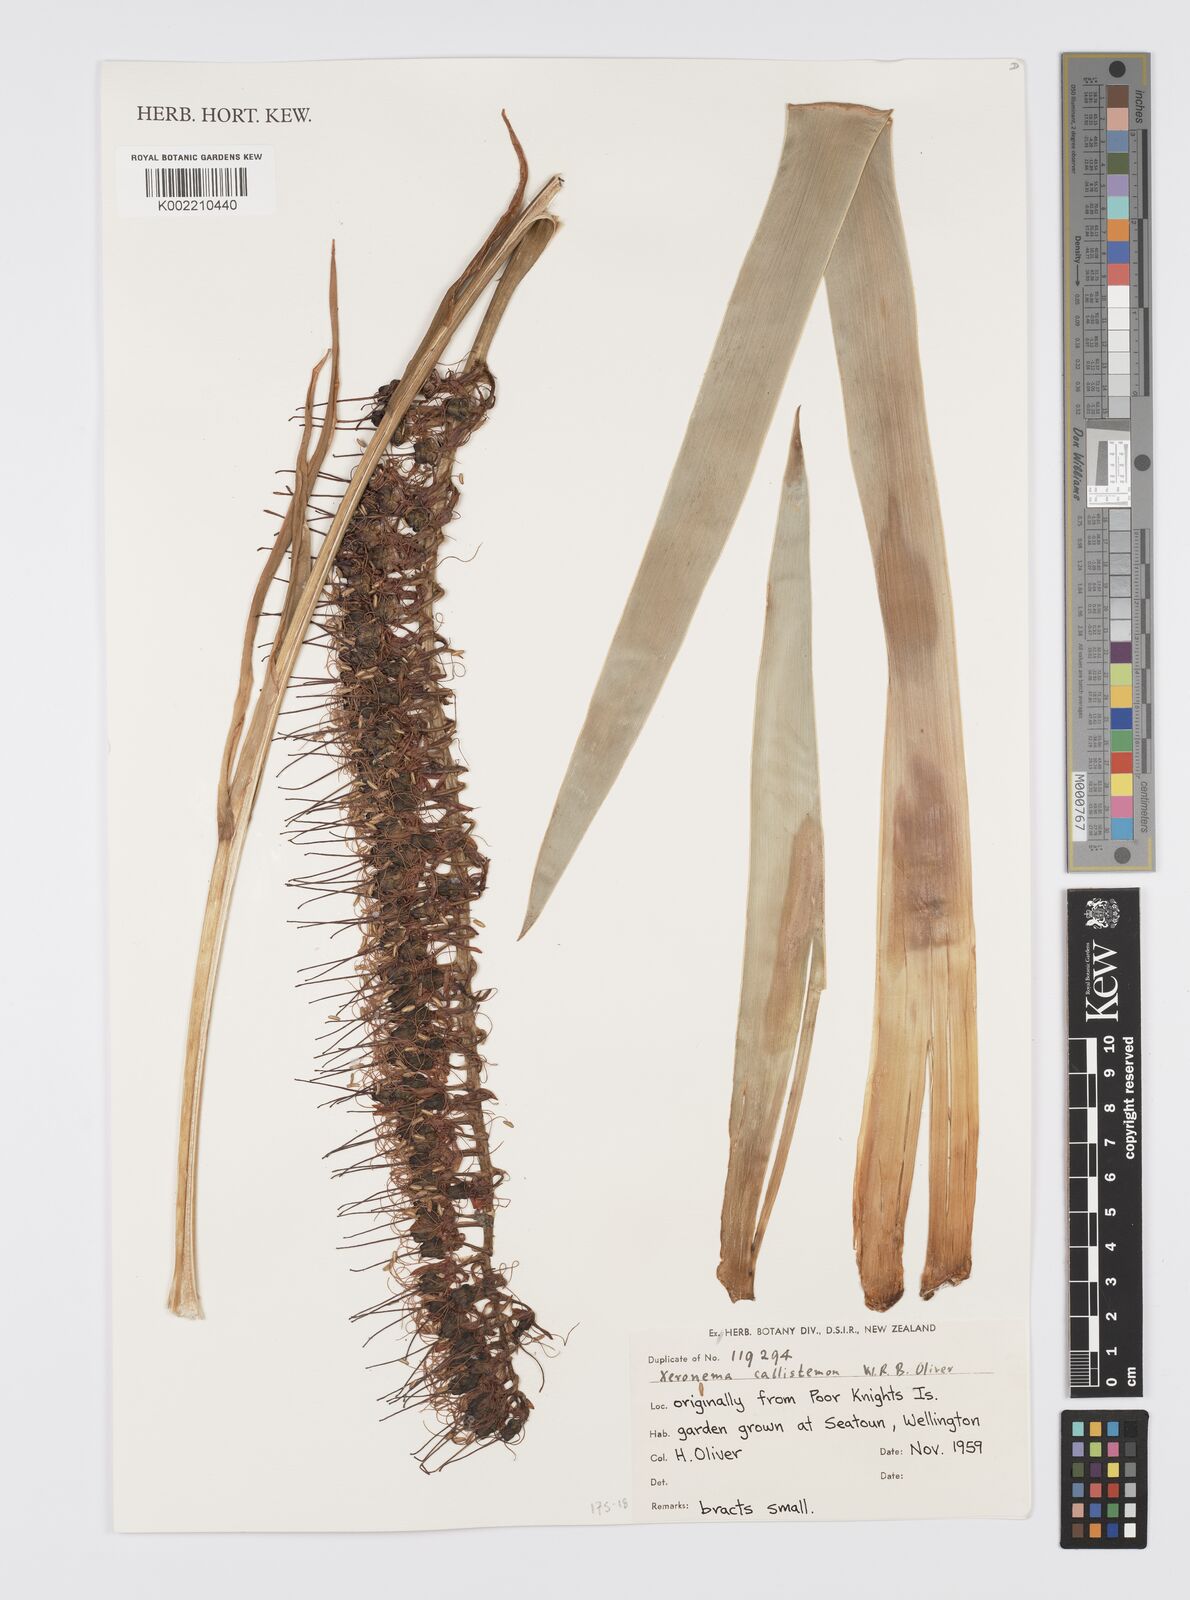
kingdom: Plantae
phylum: Tracheophyta
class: Liliopsida
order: Asparagales
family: Xeronemataceae
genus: Xeronema
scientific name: Xeronema callistemon
